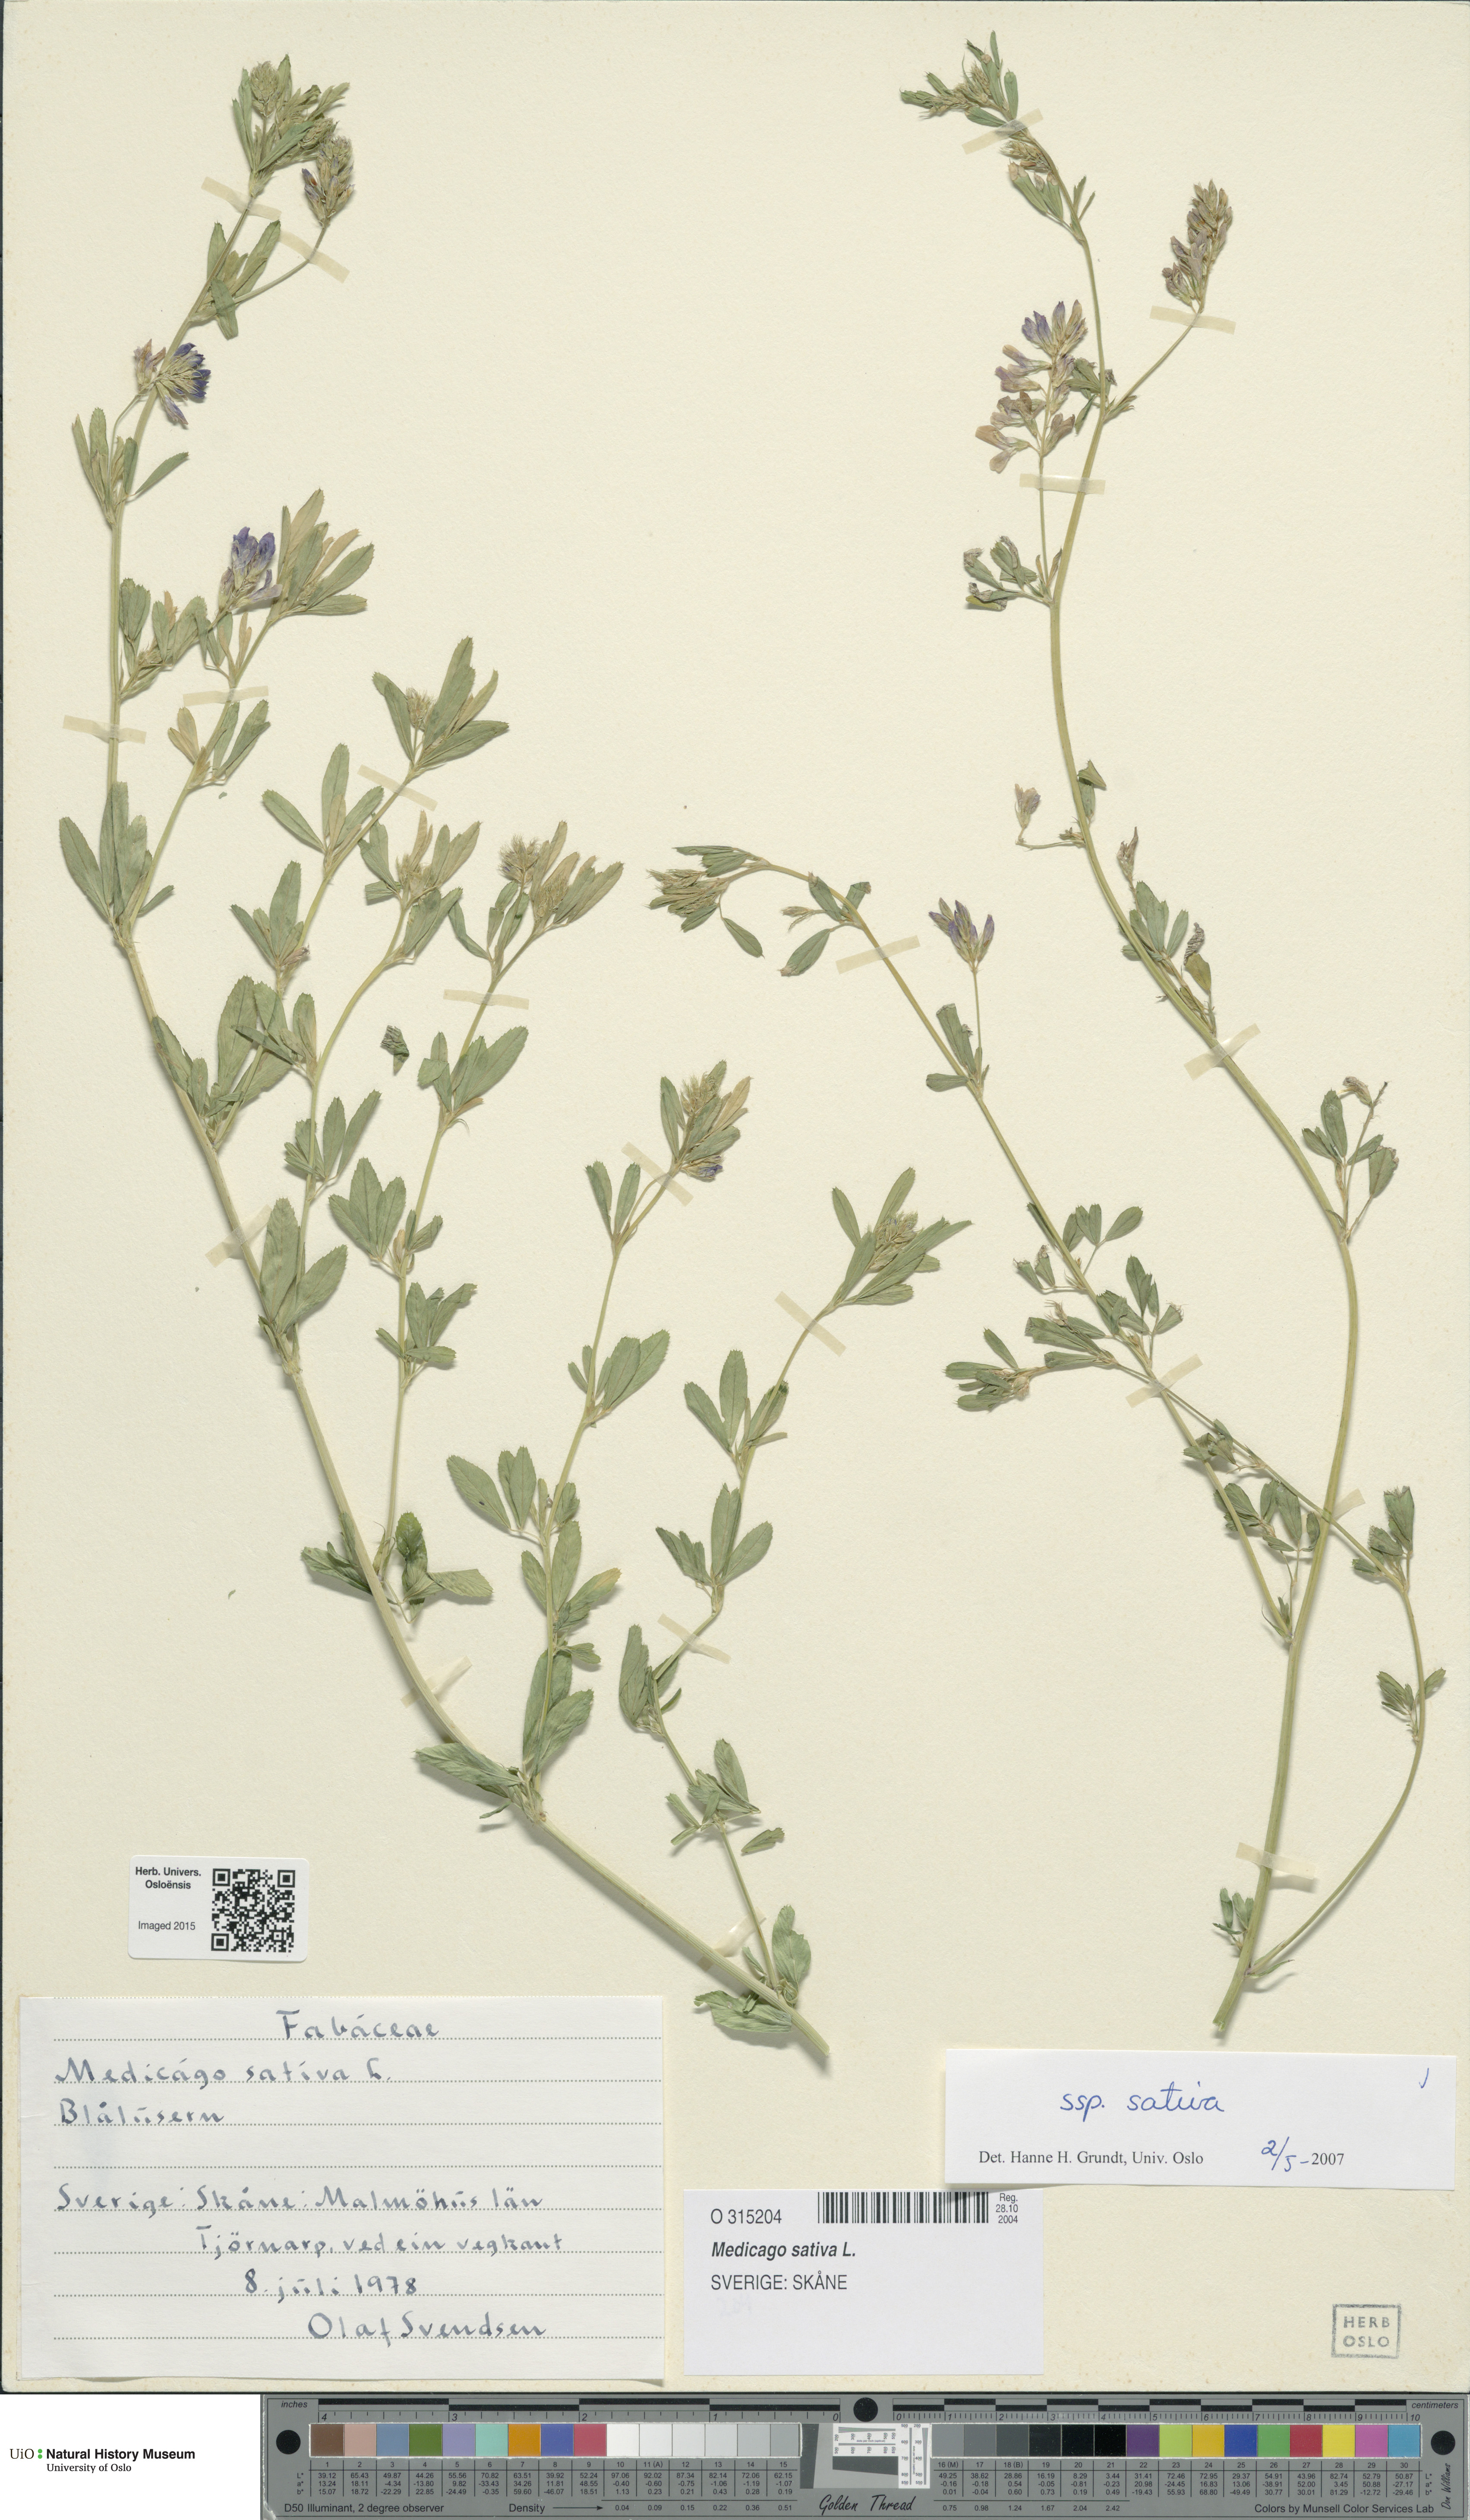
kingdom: Plantae
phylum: Tracheophyta
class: Magnoliopsida
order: Fabales
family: Fabaceae
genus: Medicago
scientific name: Medicago sativa
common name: Alfalfa
